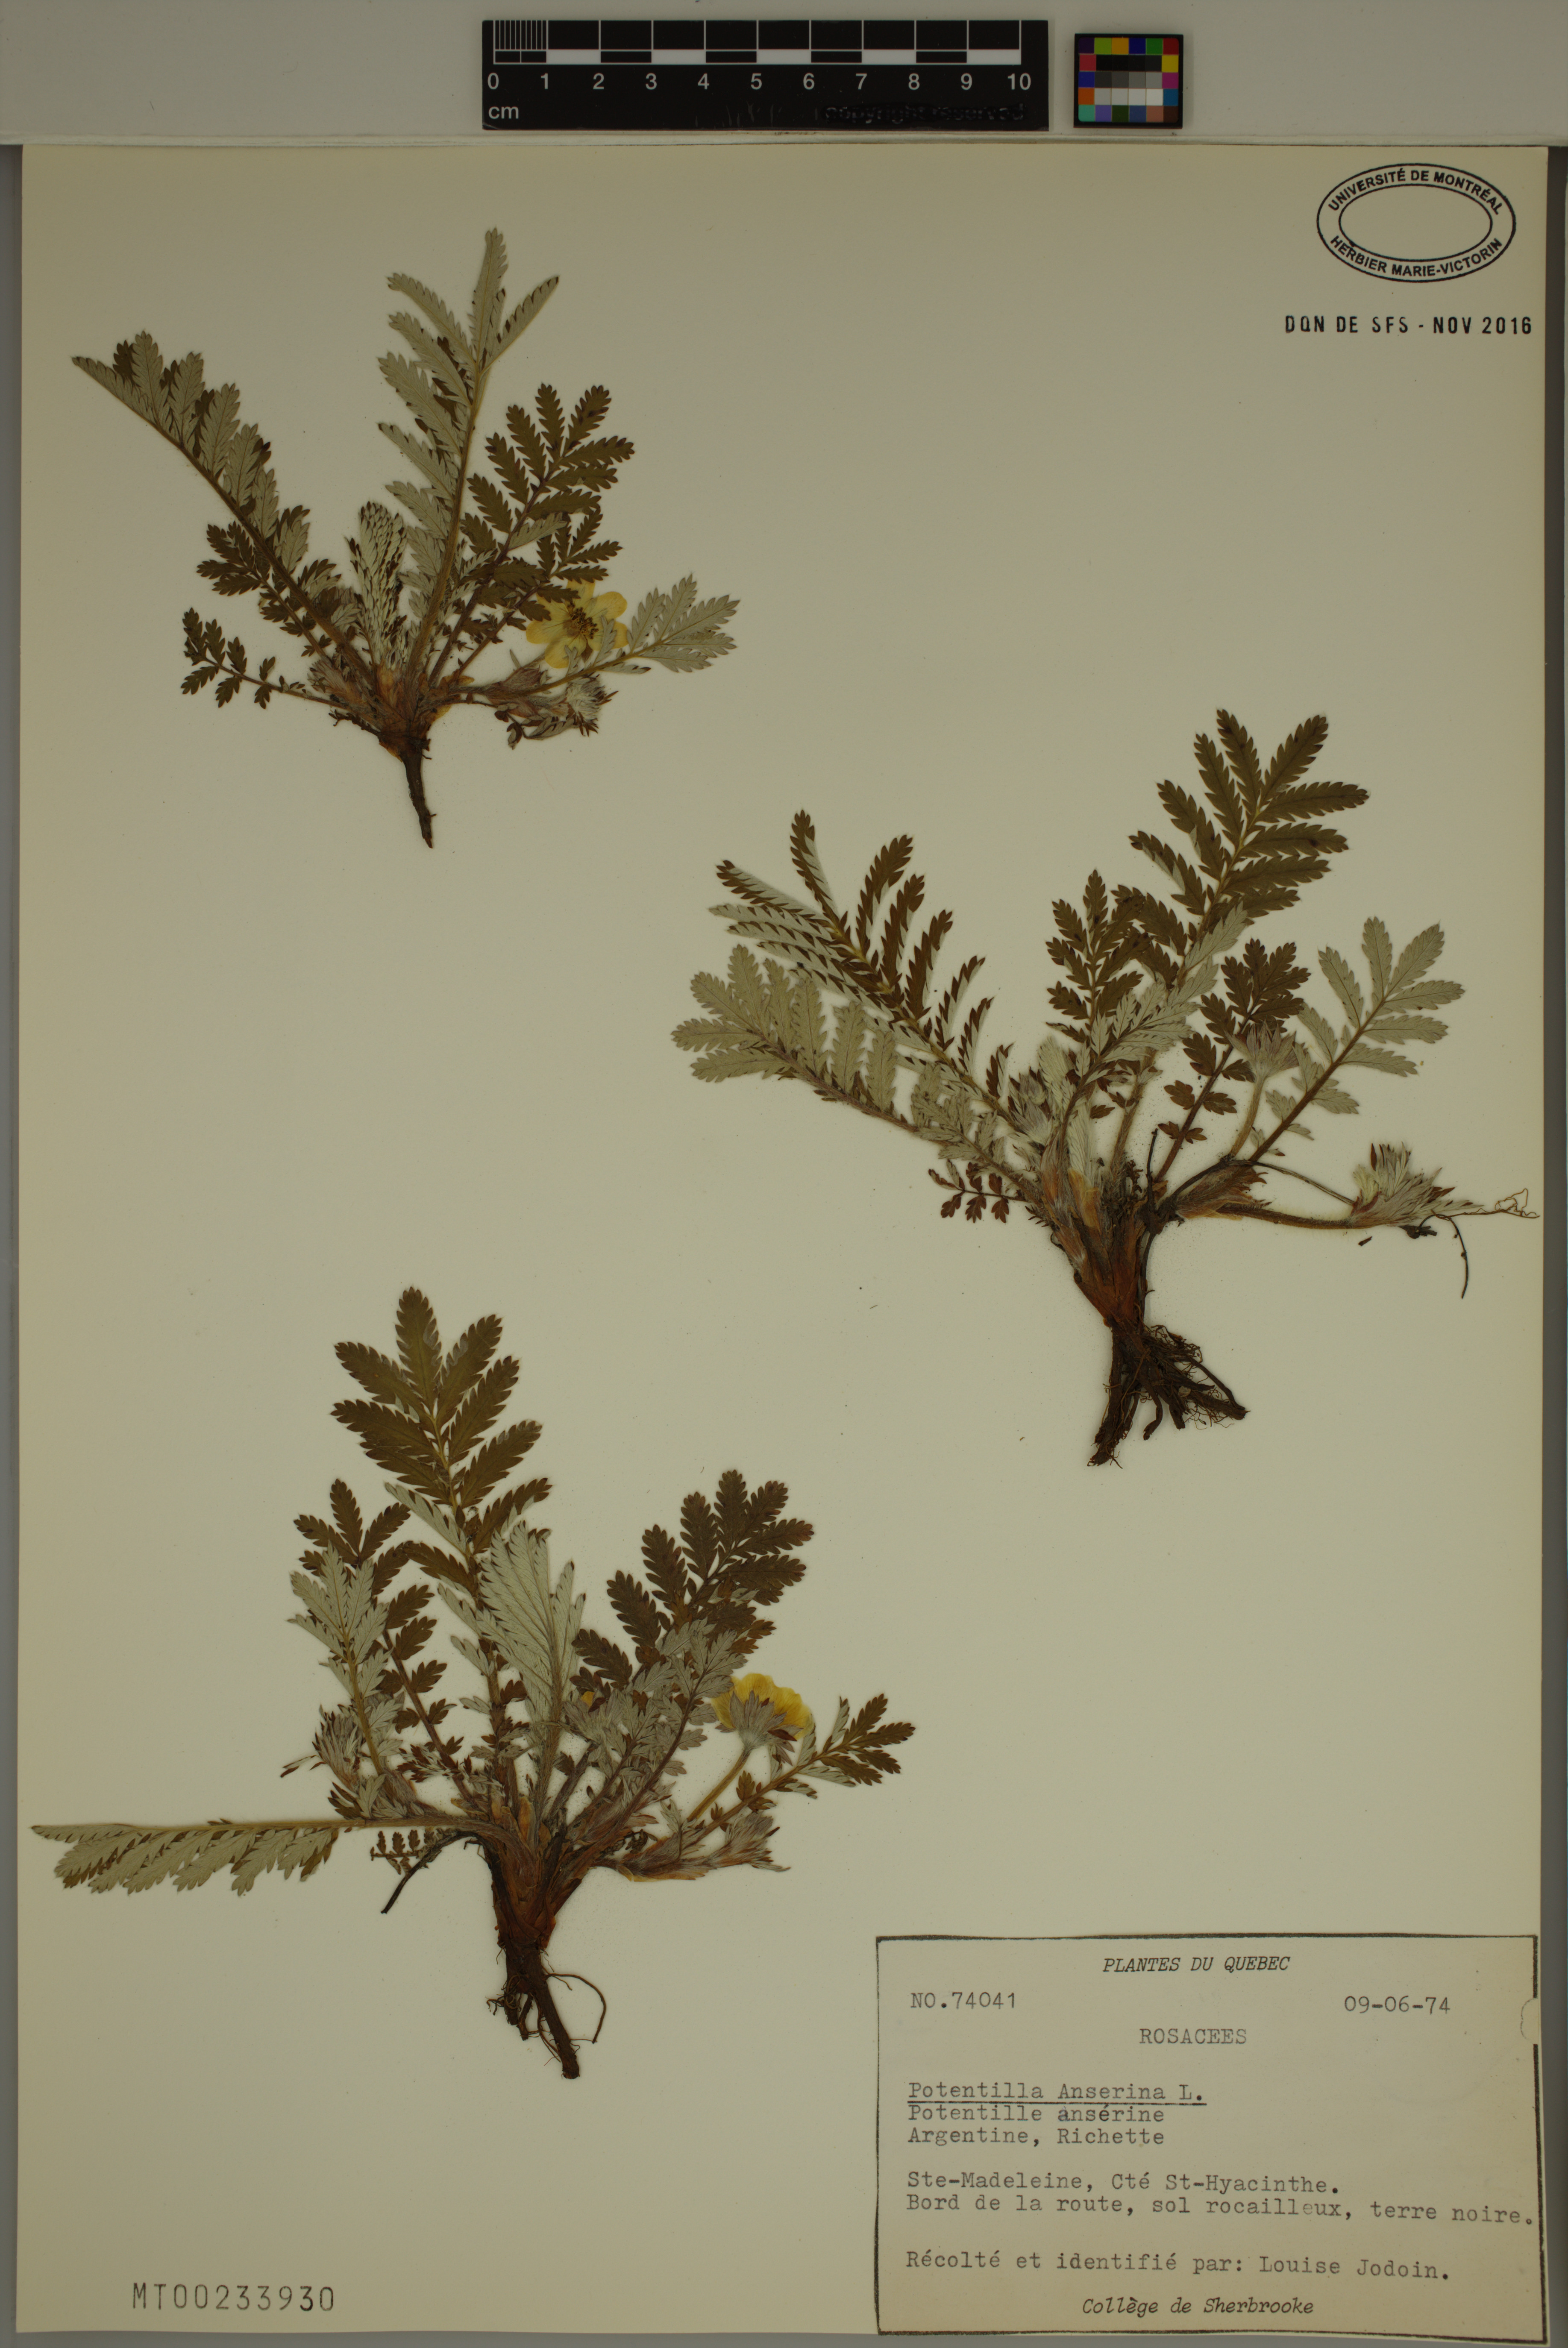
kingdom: Plantae
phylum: Tracheophyta
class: Magnoliopsida
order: Rosales
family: Rosaceae
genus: Argentina
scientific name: Argentina anserina
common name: Common silverweed
